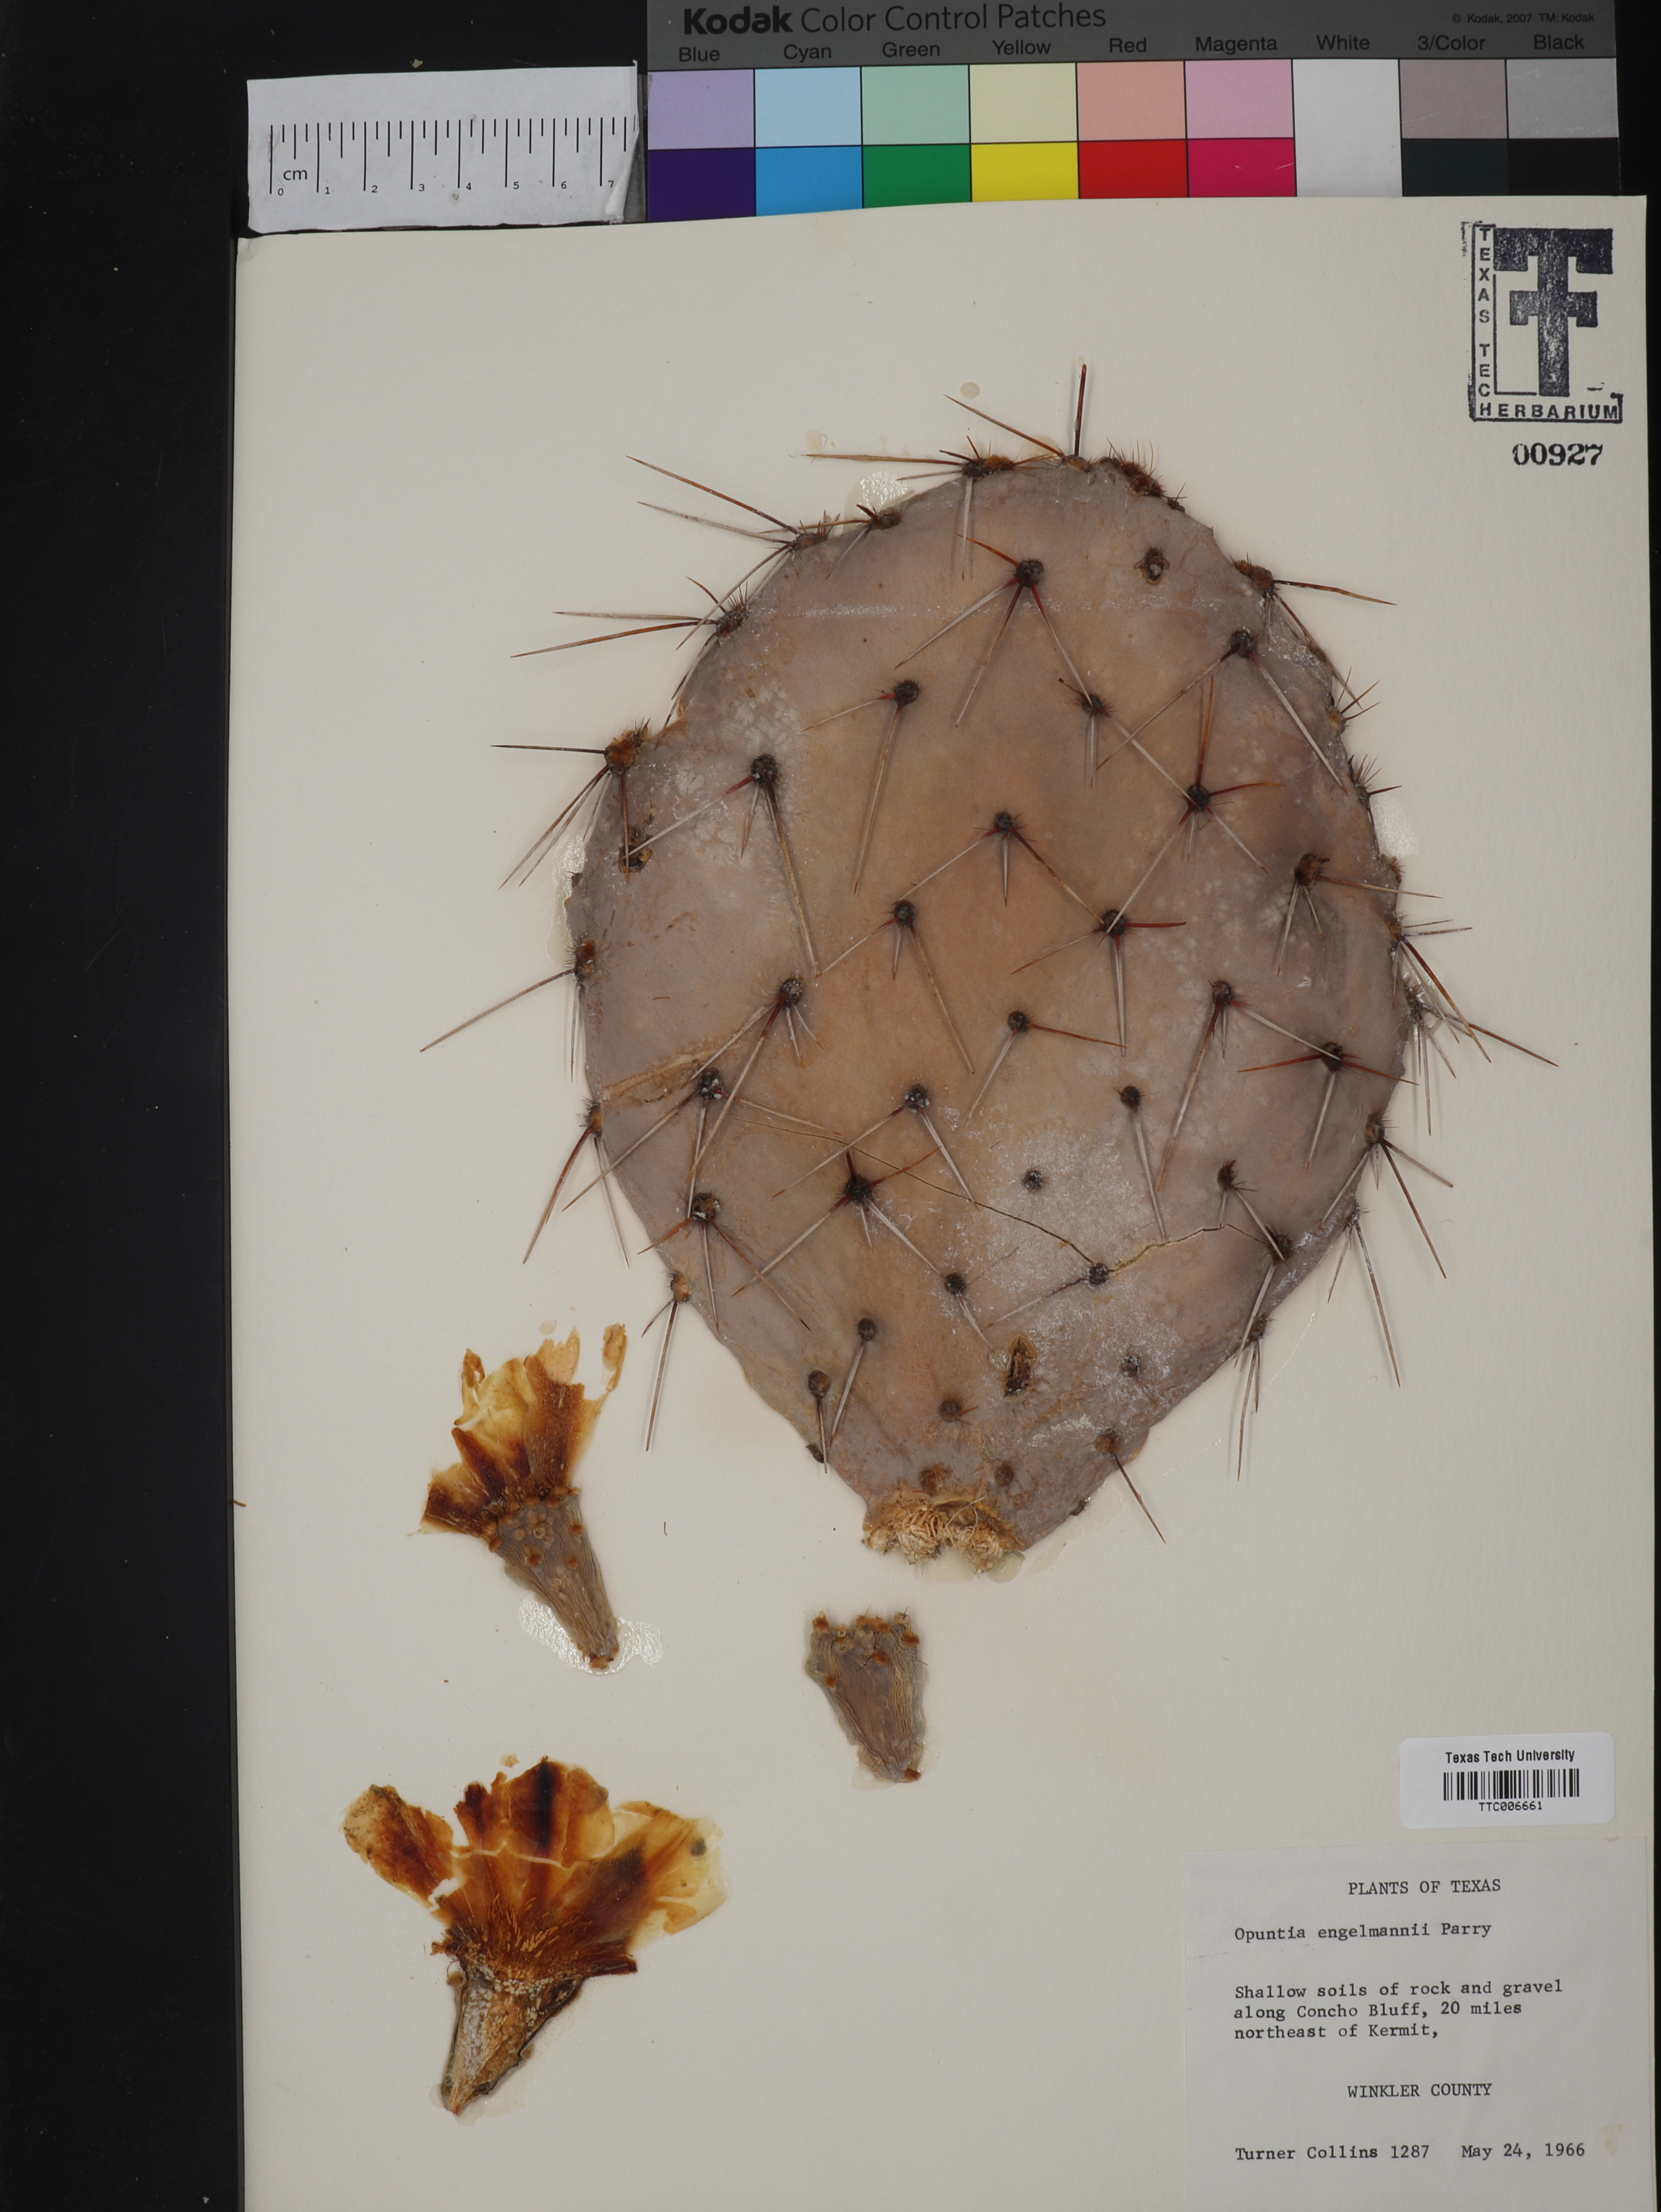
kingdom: Plantae
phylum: Tracheophyta
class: Magnoliopsida
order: Caryophyllales
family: Cactaceae
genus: Opuntia
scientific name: Opuntia engelmannii
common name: Cactus-apple
